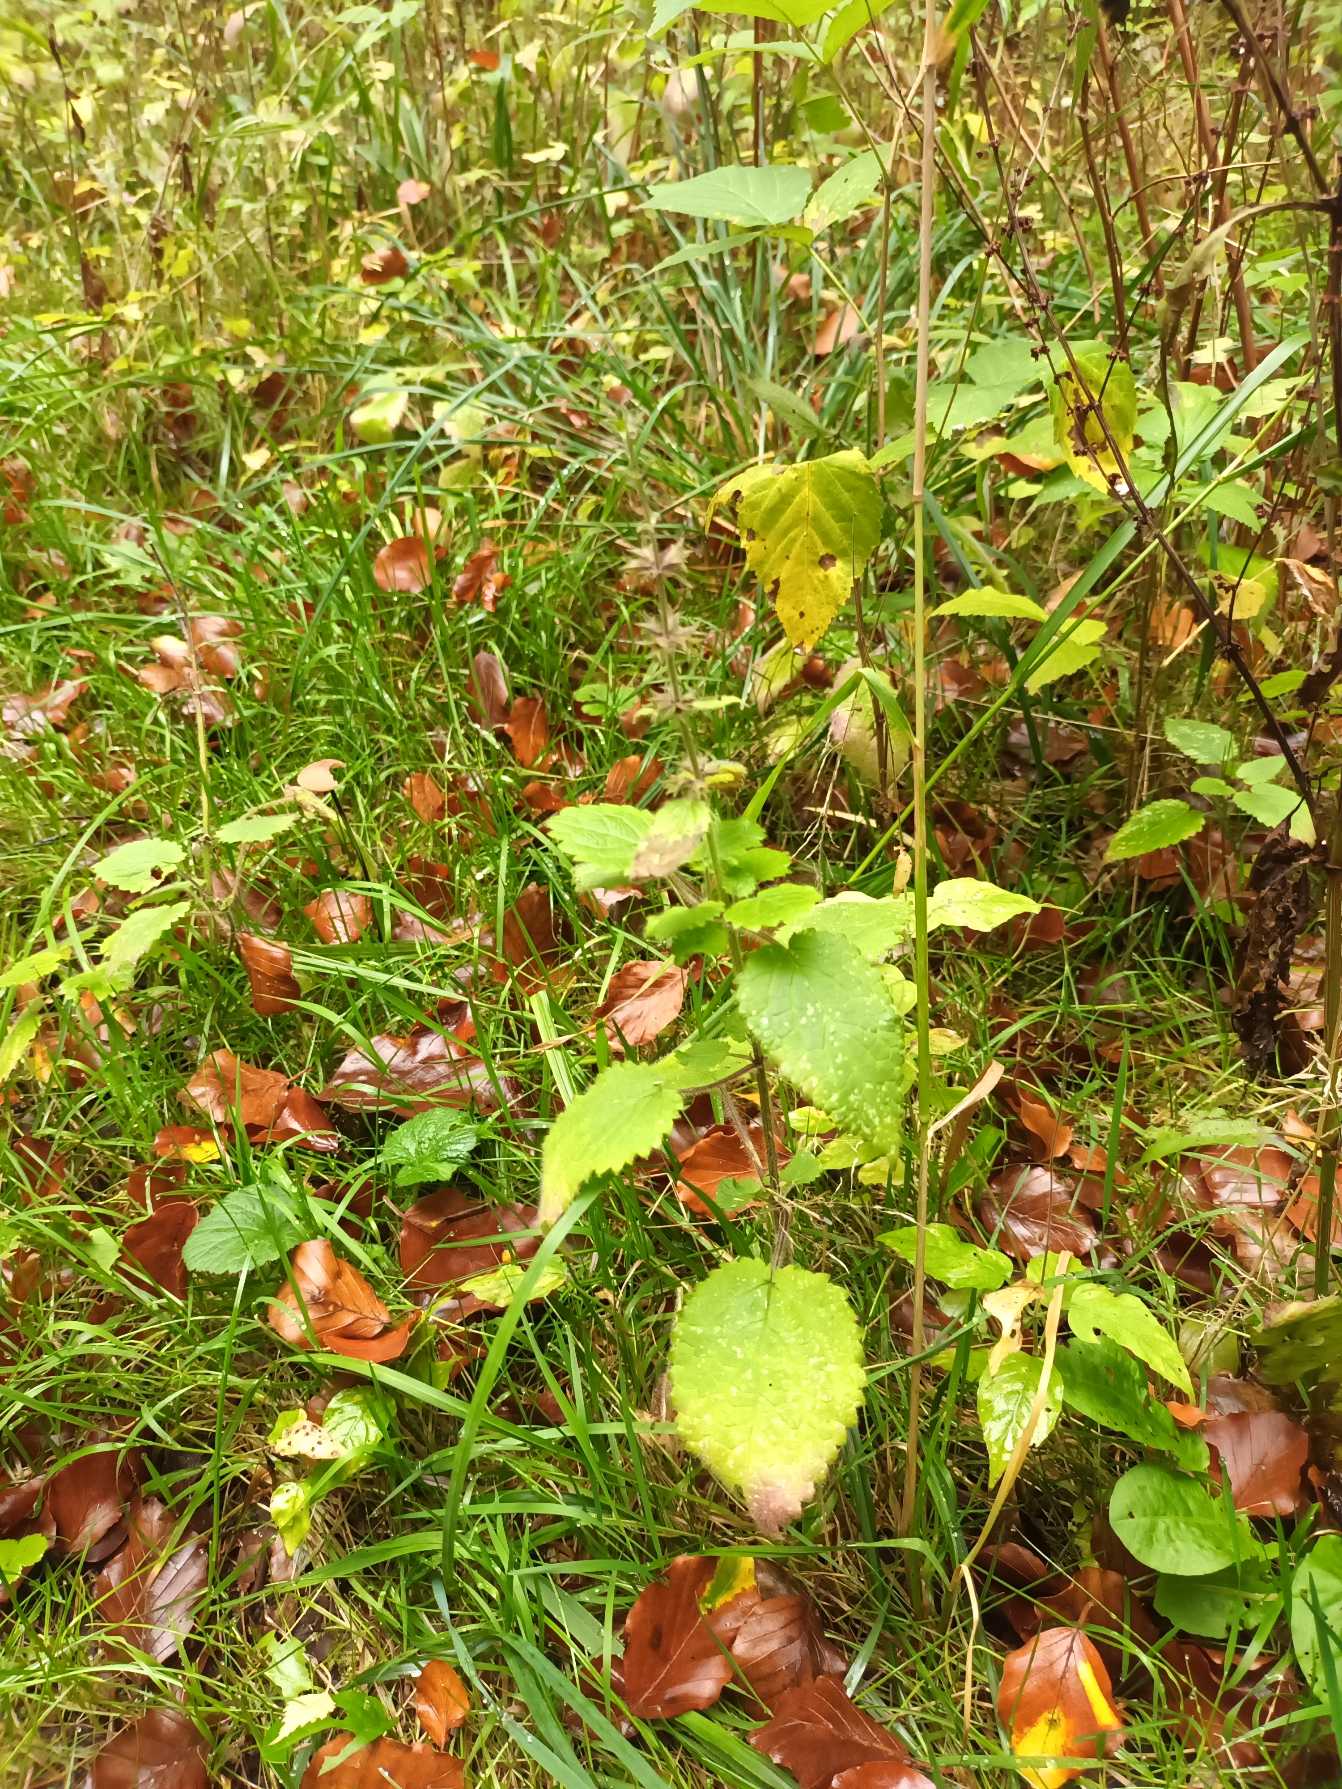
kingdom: Plantae
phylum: Tracheophyta
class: Magnoliopsida
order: Lamiales
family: Lamiaceae
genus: Stachys
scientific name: Stachys sylvatica
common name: Skov-galtetand
